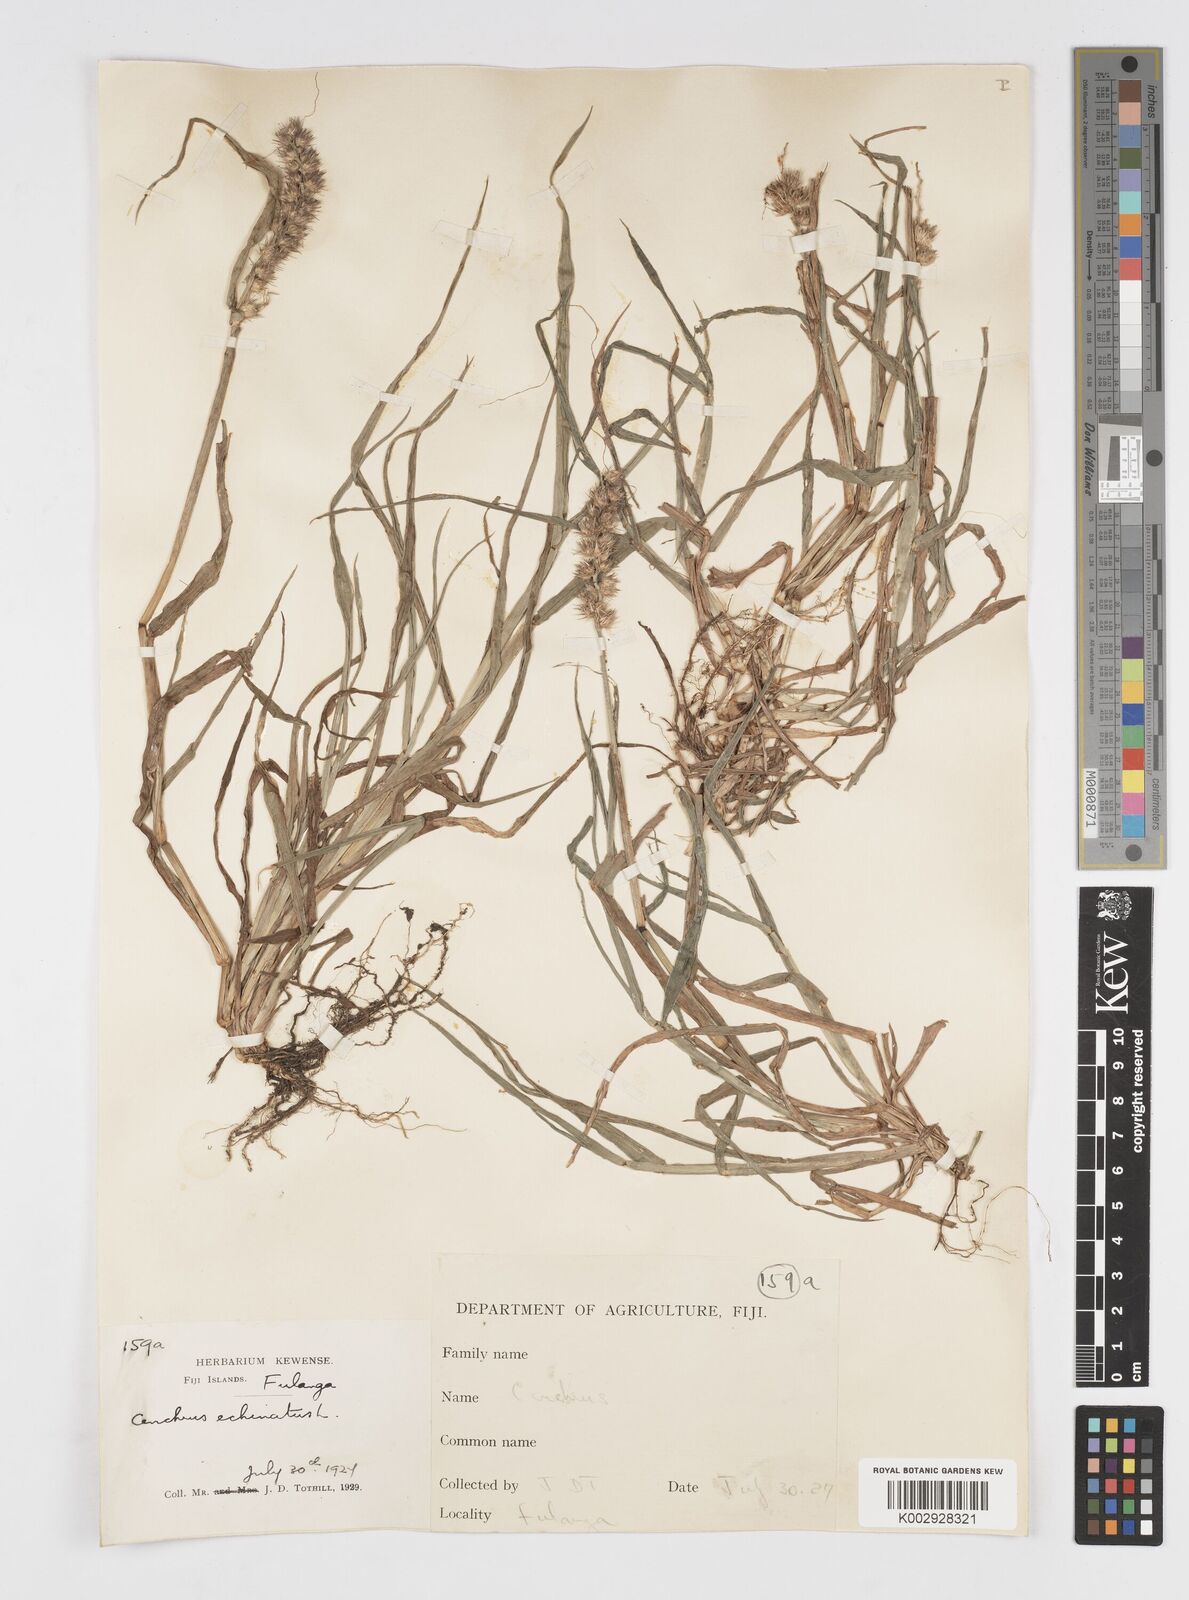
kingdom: Plantae
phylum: Tracheophyta
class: Liliopsida
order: Poales
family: Poaceae
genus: Cenchrus
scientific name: Cenchrus echinatus
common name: Southern sandbur
